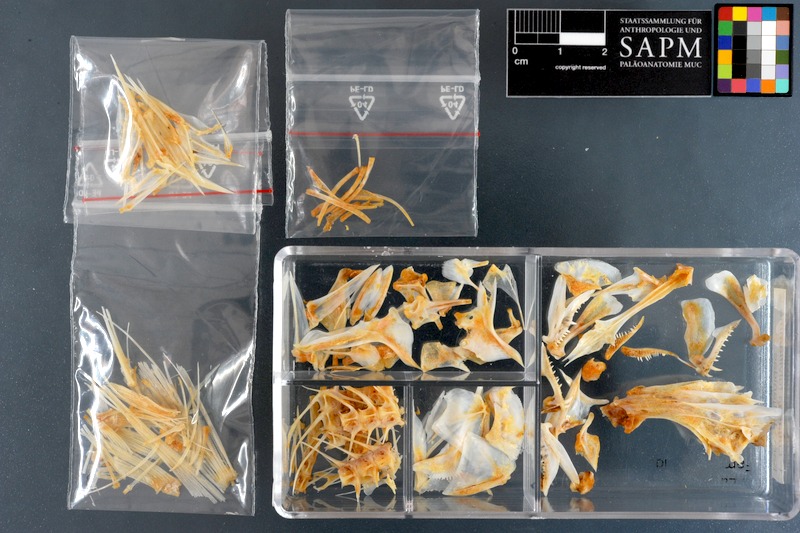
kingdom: Animalia
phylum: Chordata
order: Perciformes
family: Lutjanidae
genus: Lutjanus
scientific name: Lutjanus fulviflamma
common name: Blackspot snapper
